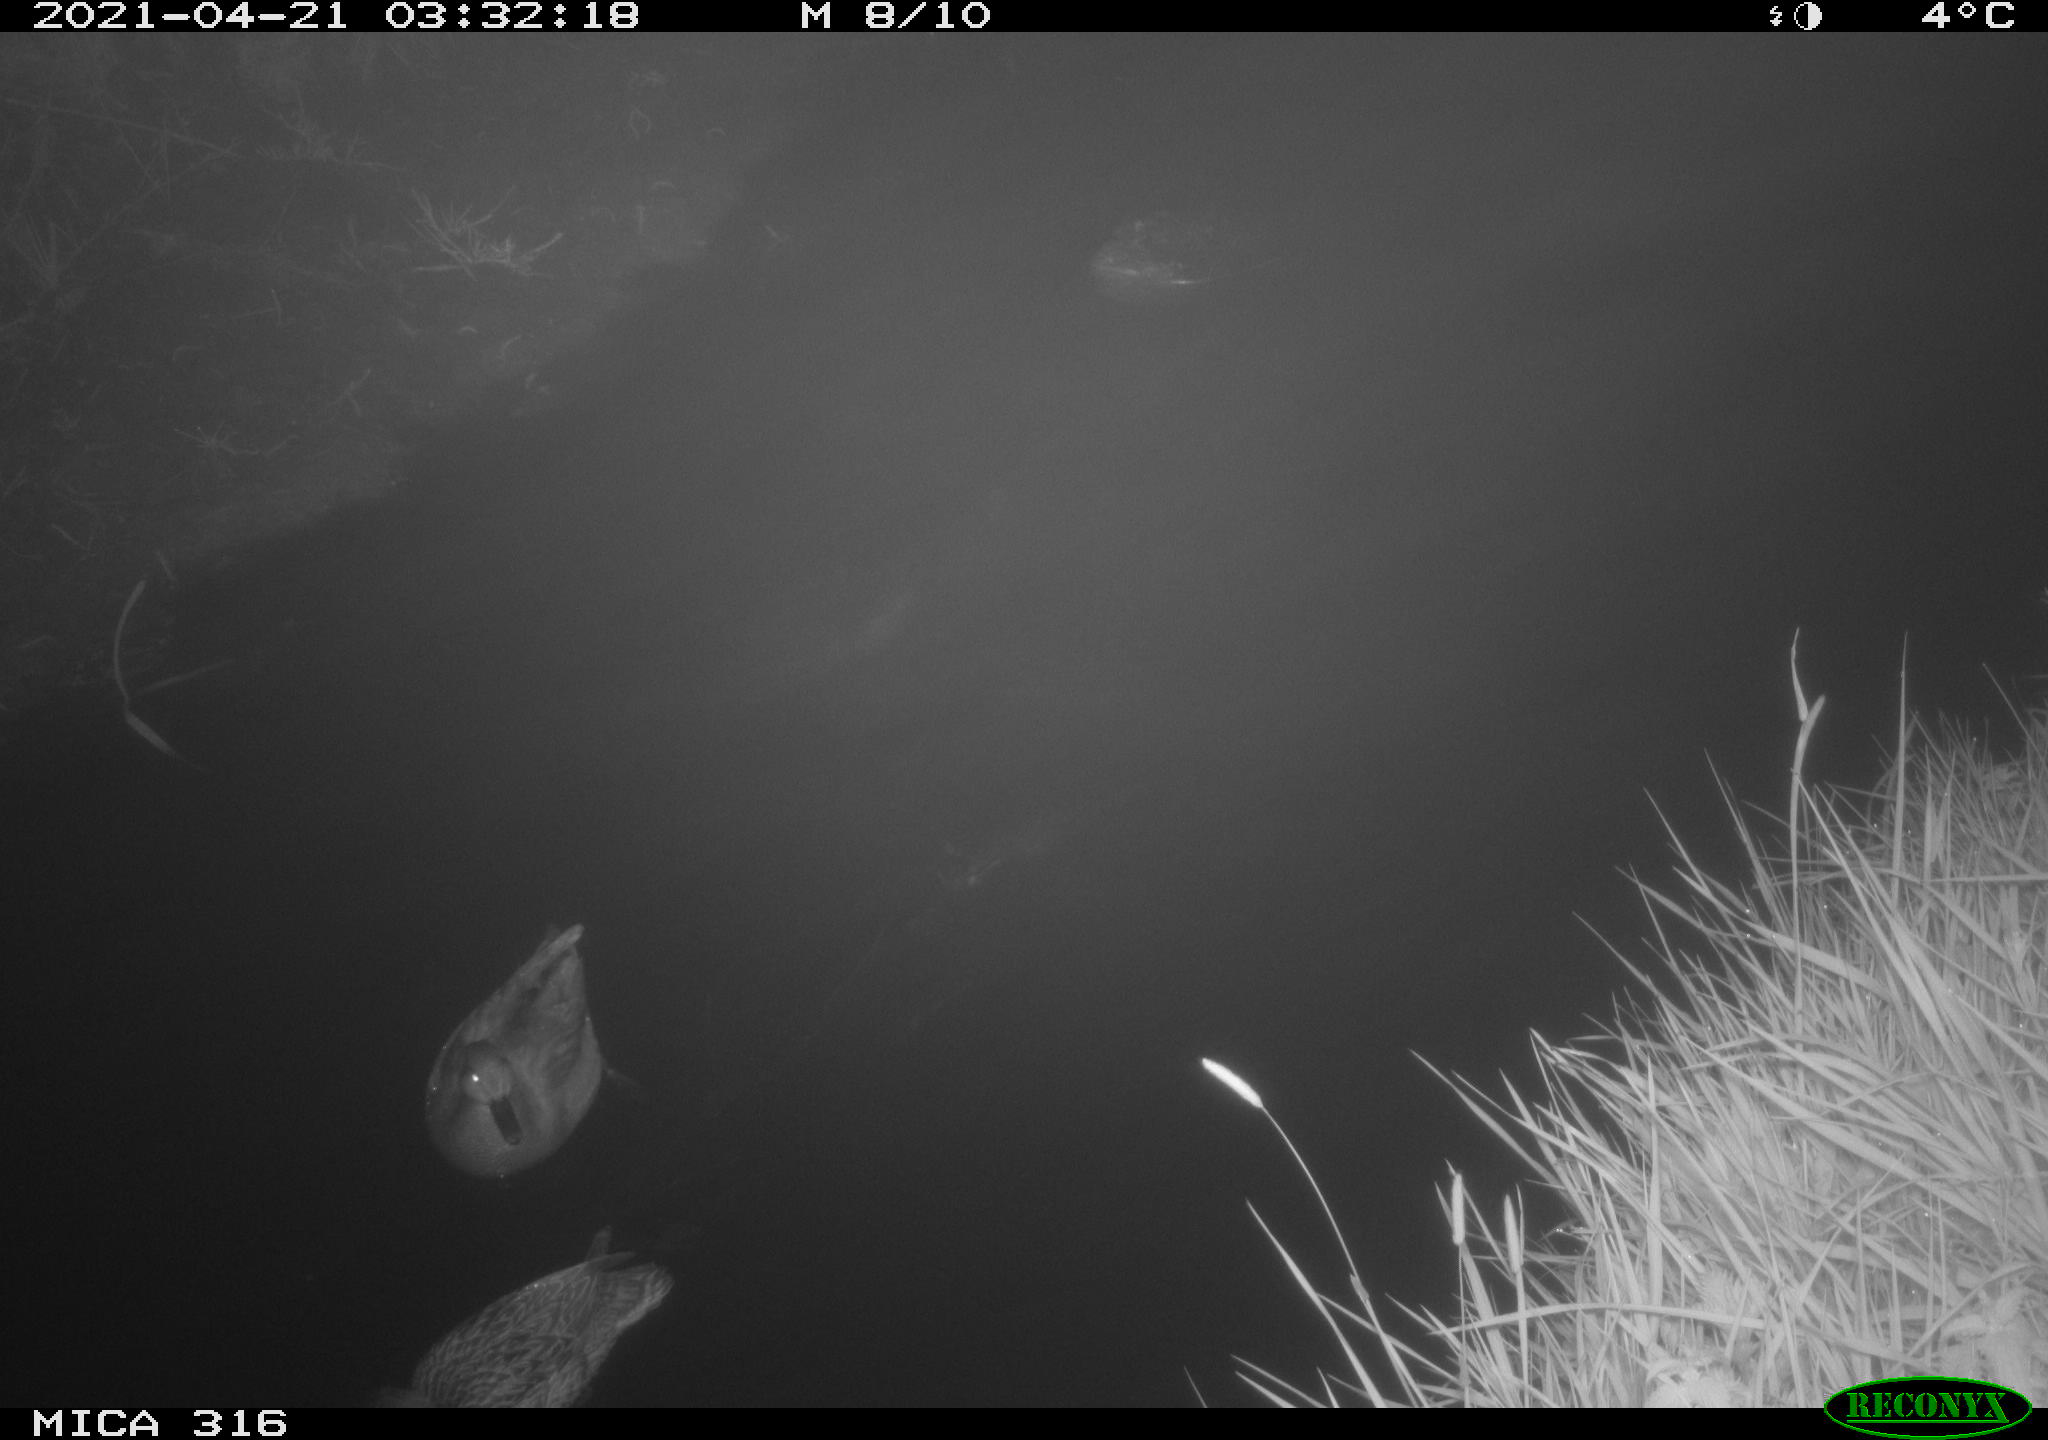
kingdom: Animalia
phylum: Chordata
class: Aves
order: Anseriformes
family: Anatidae
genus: Mareca
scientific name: Mareca strepera
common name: Gadwall
